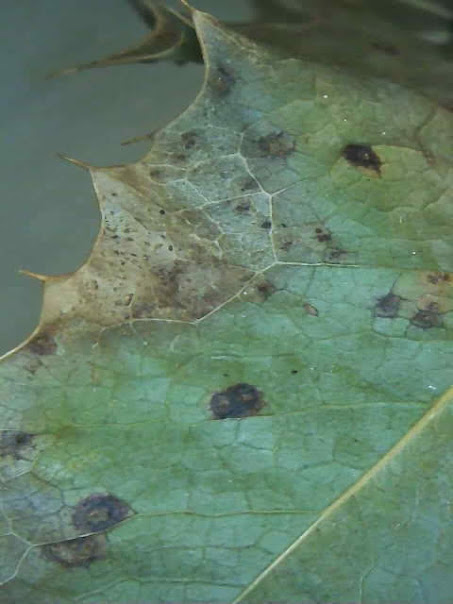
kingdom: Fungi
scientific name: Fungi
